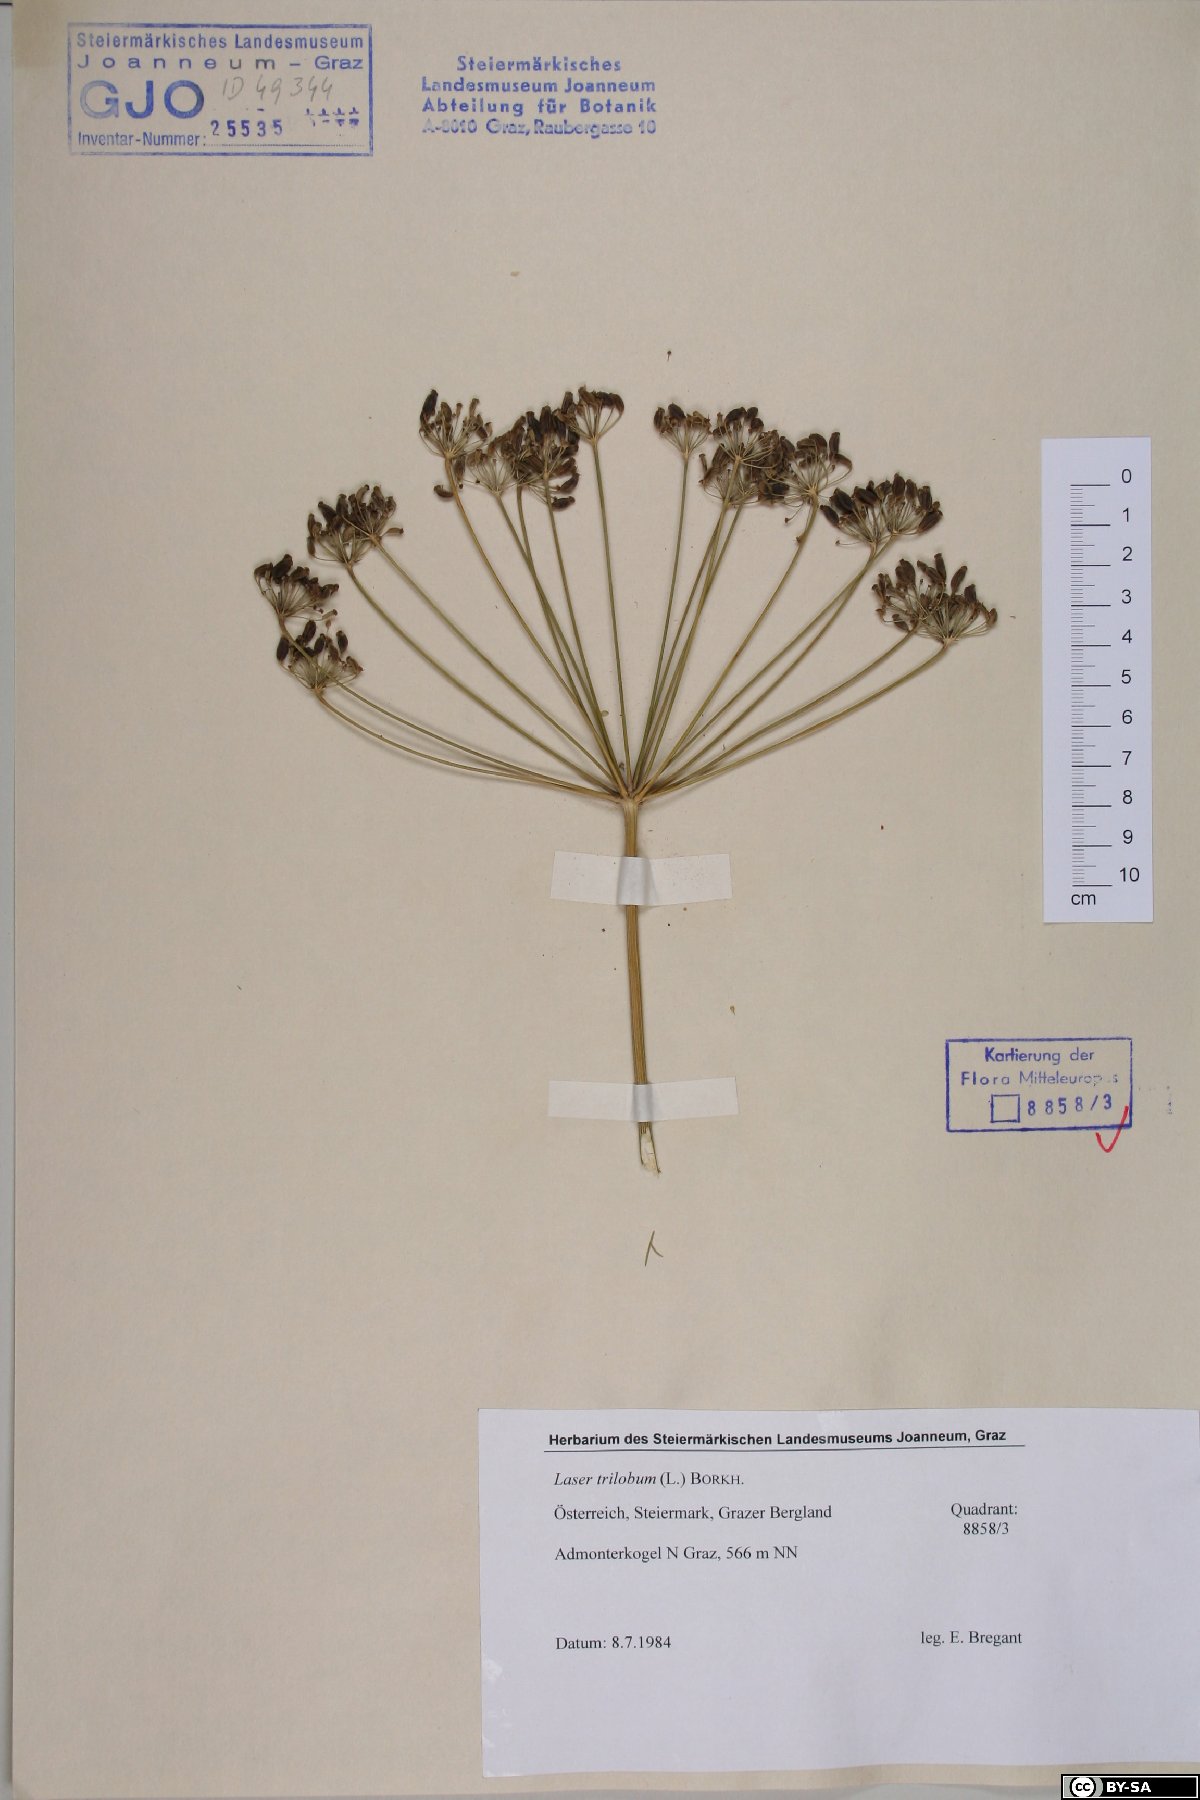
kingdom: Plantae
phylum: Tracheophyta
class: Magnoliopsida
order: Apiales
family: Apiaceae
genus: Laser
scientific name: Laser trilobum
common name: Laser
